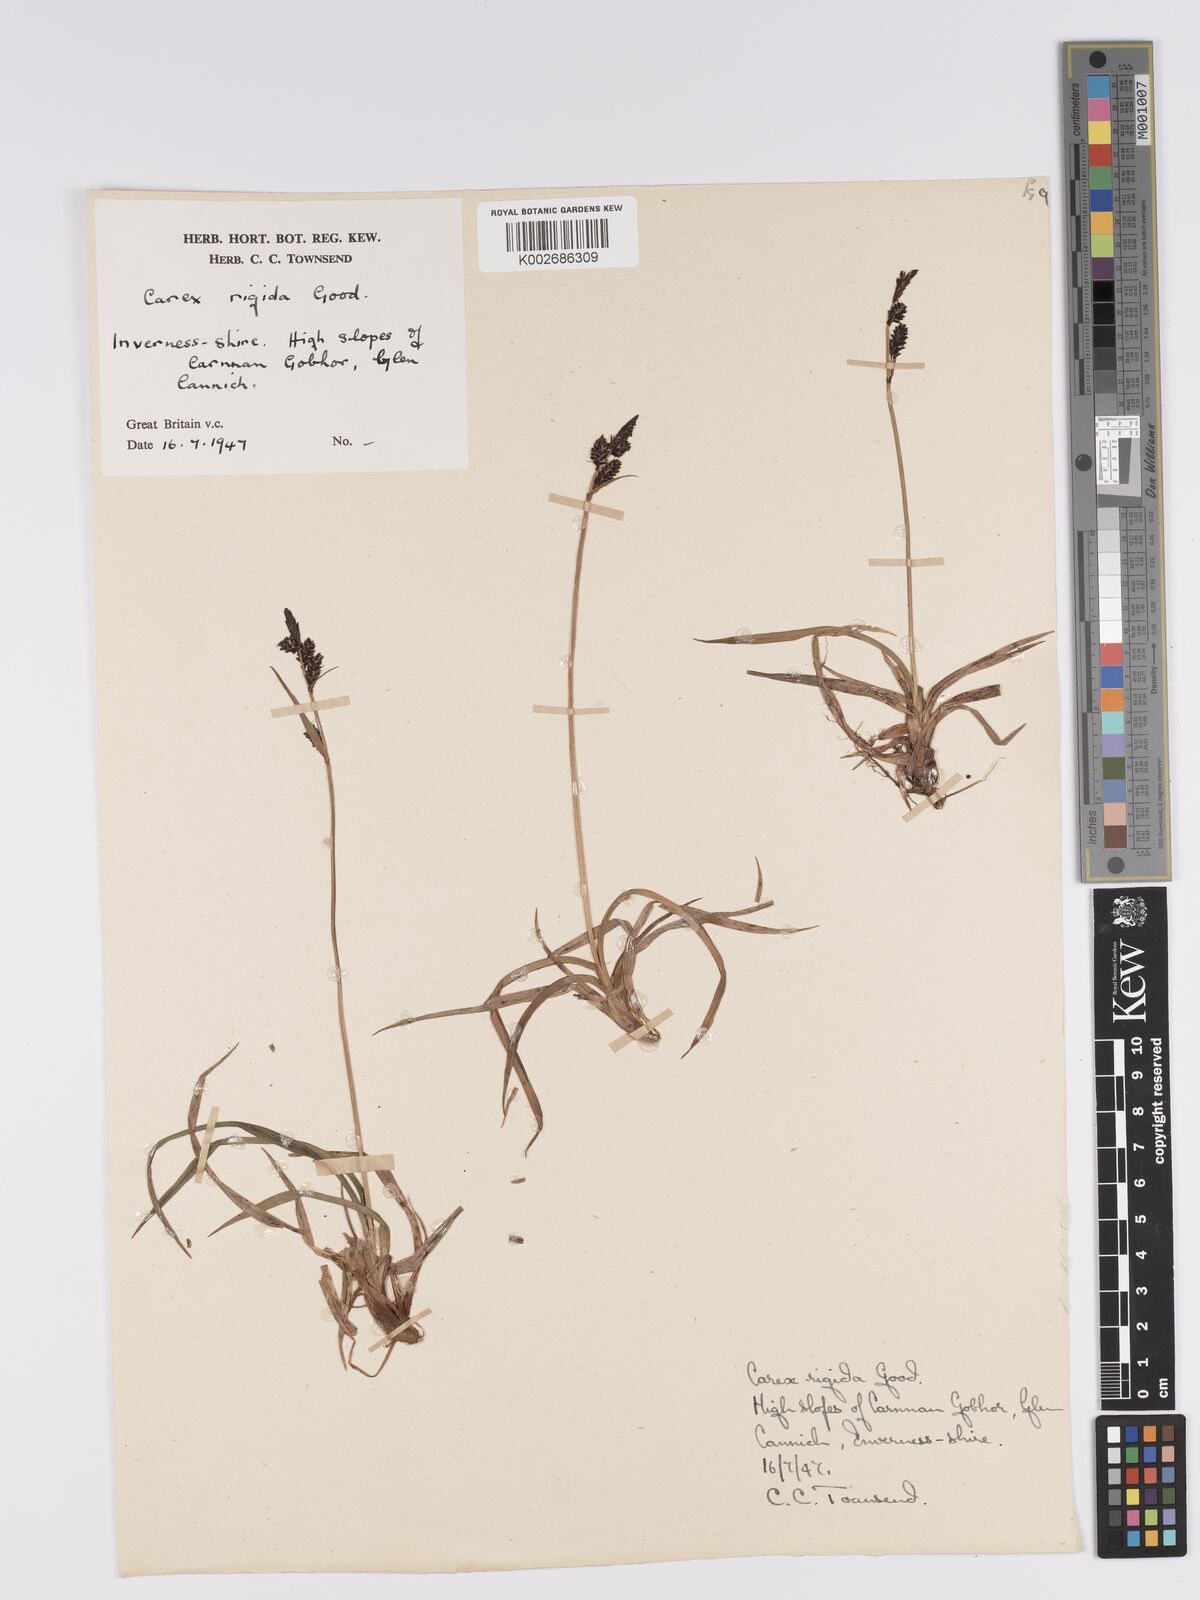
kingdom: Plantae
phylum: Tracheophyta
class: Liliopsida
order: Poales
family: Cyperaceae
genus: Carex
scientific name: Carex bigelowii
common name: Stiff sedge
